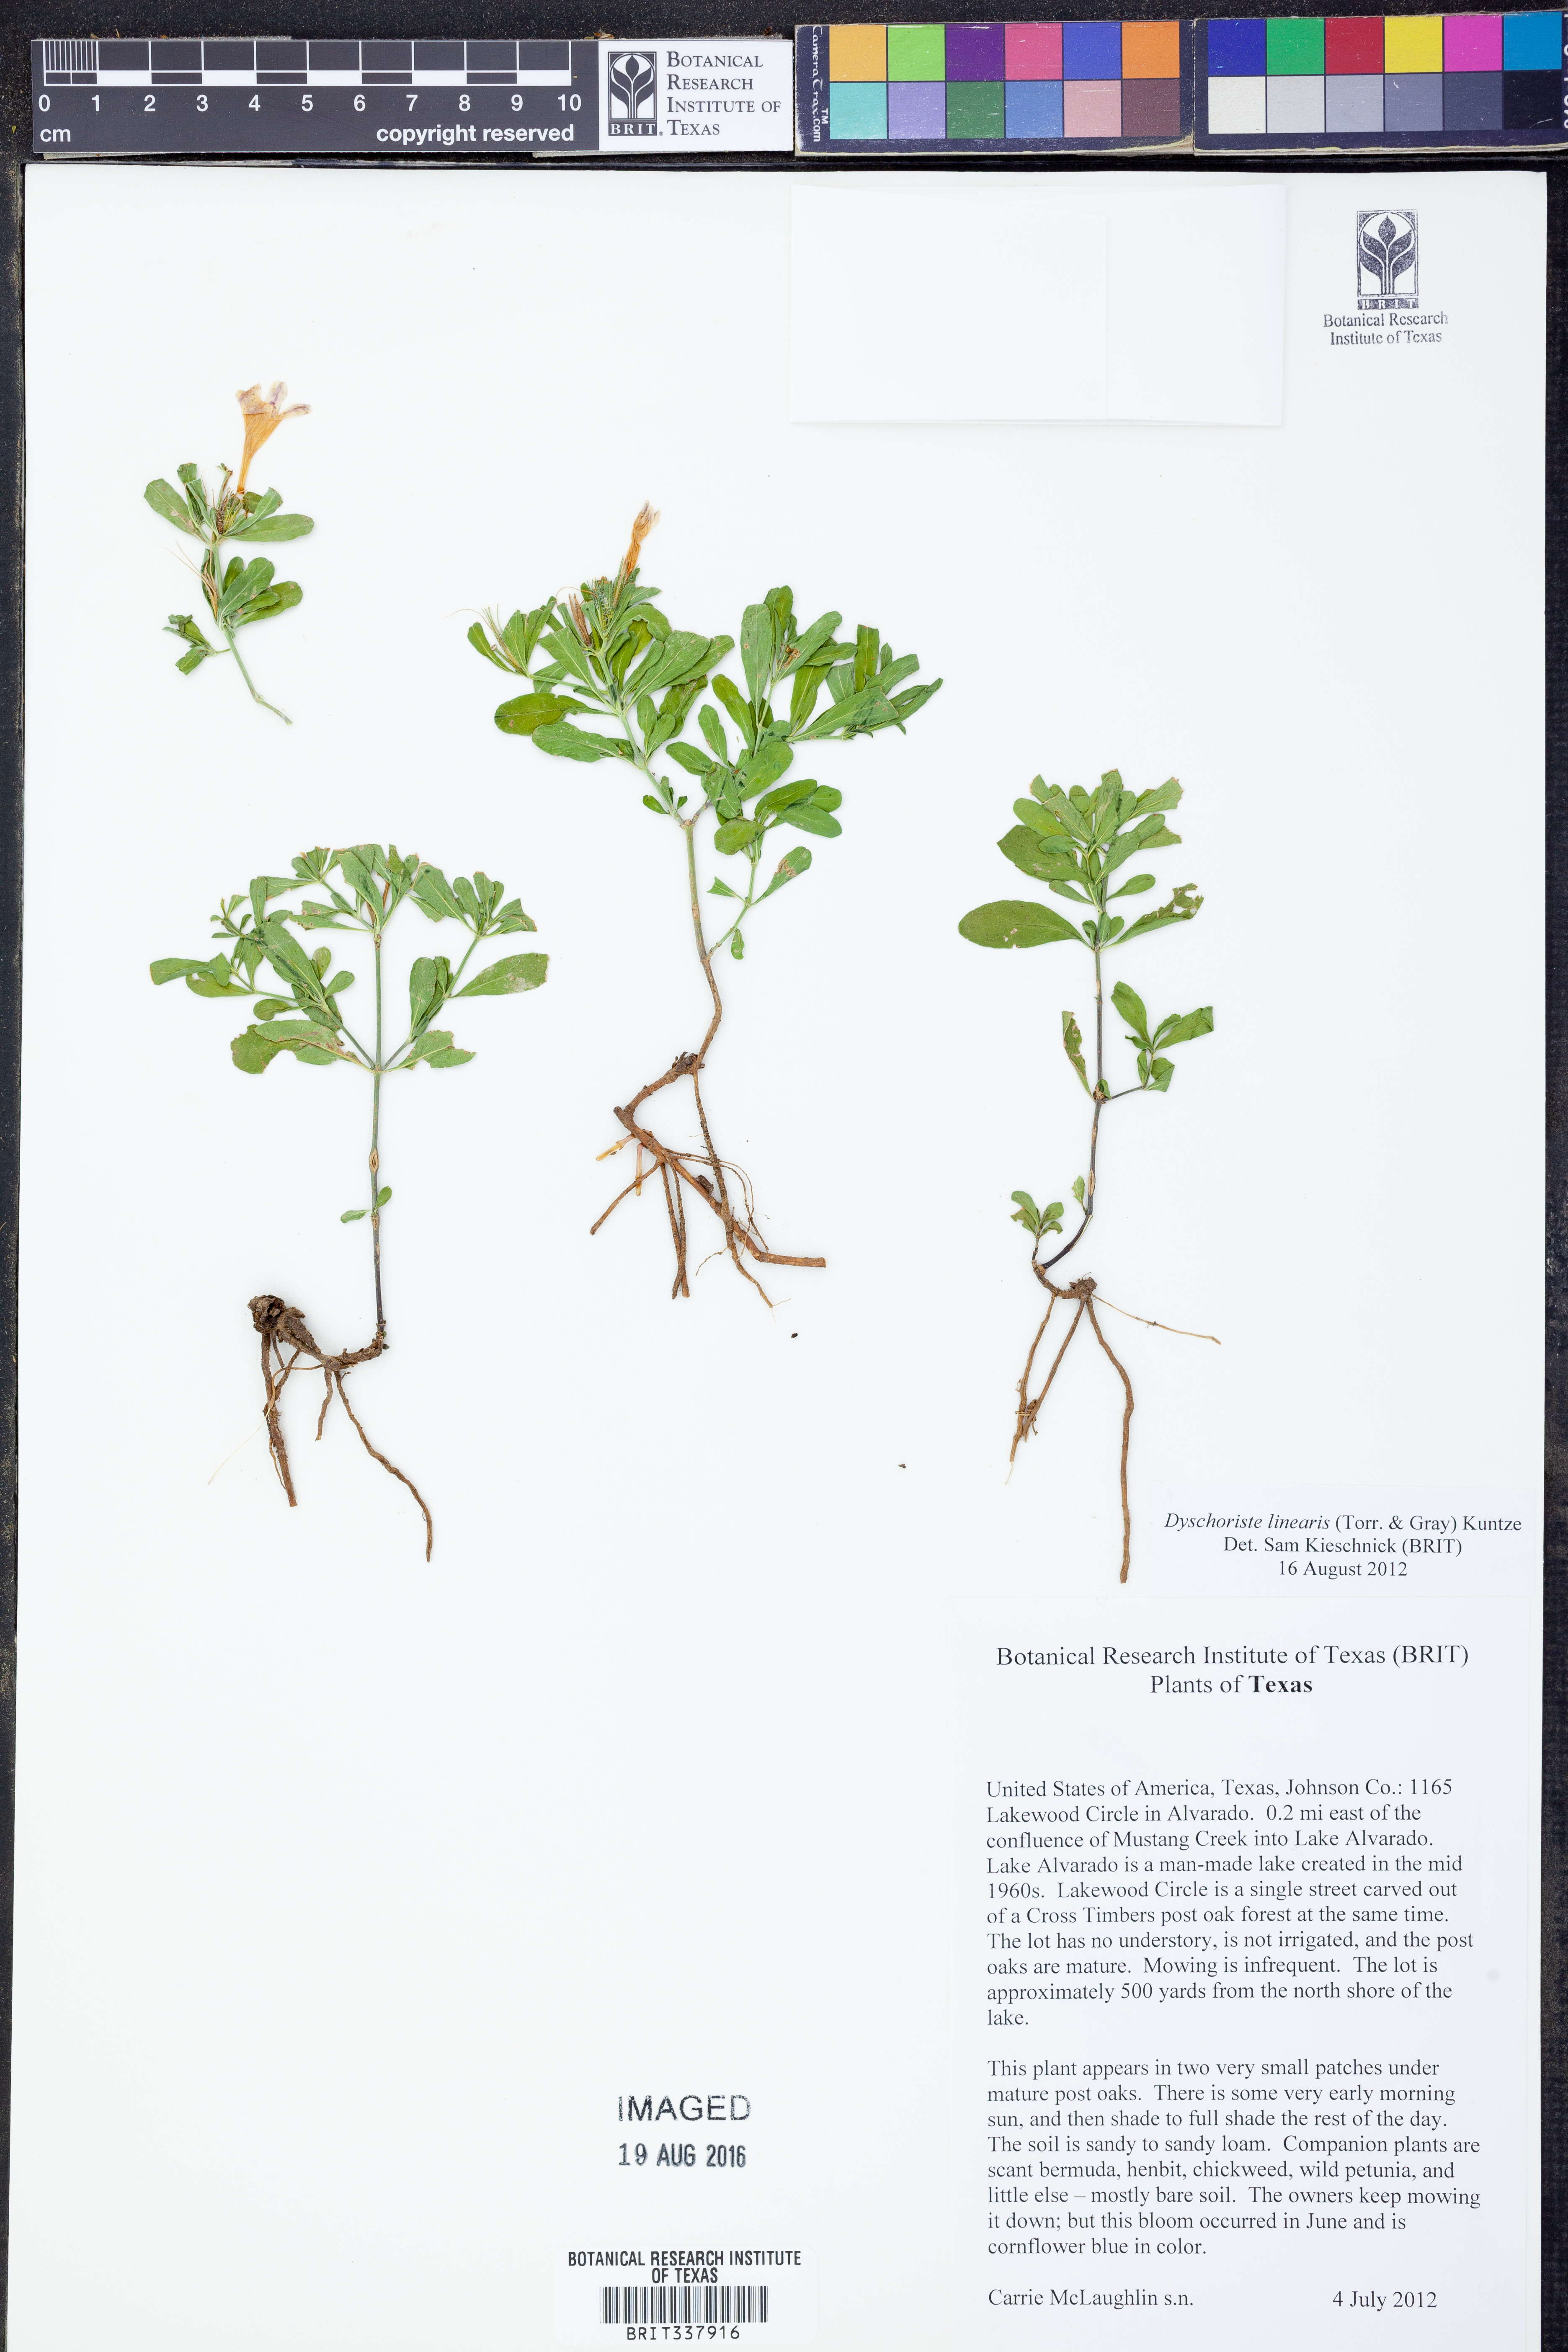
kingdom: Plantae
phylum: Tracheophyta
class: Magnoliopsida
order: Lamiales
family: Acanthaceae
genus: Dyschoriste
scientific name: Dyschoriste linearis
